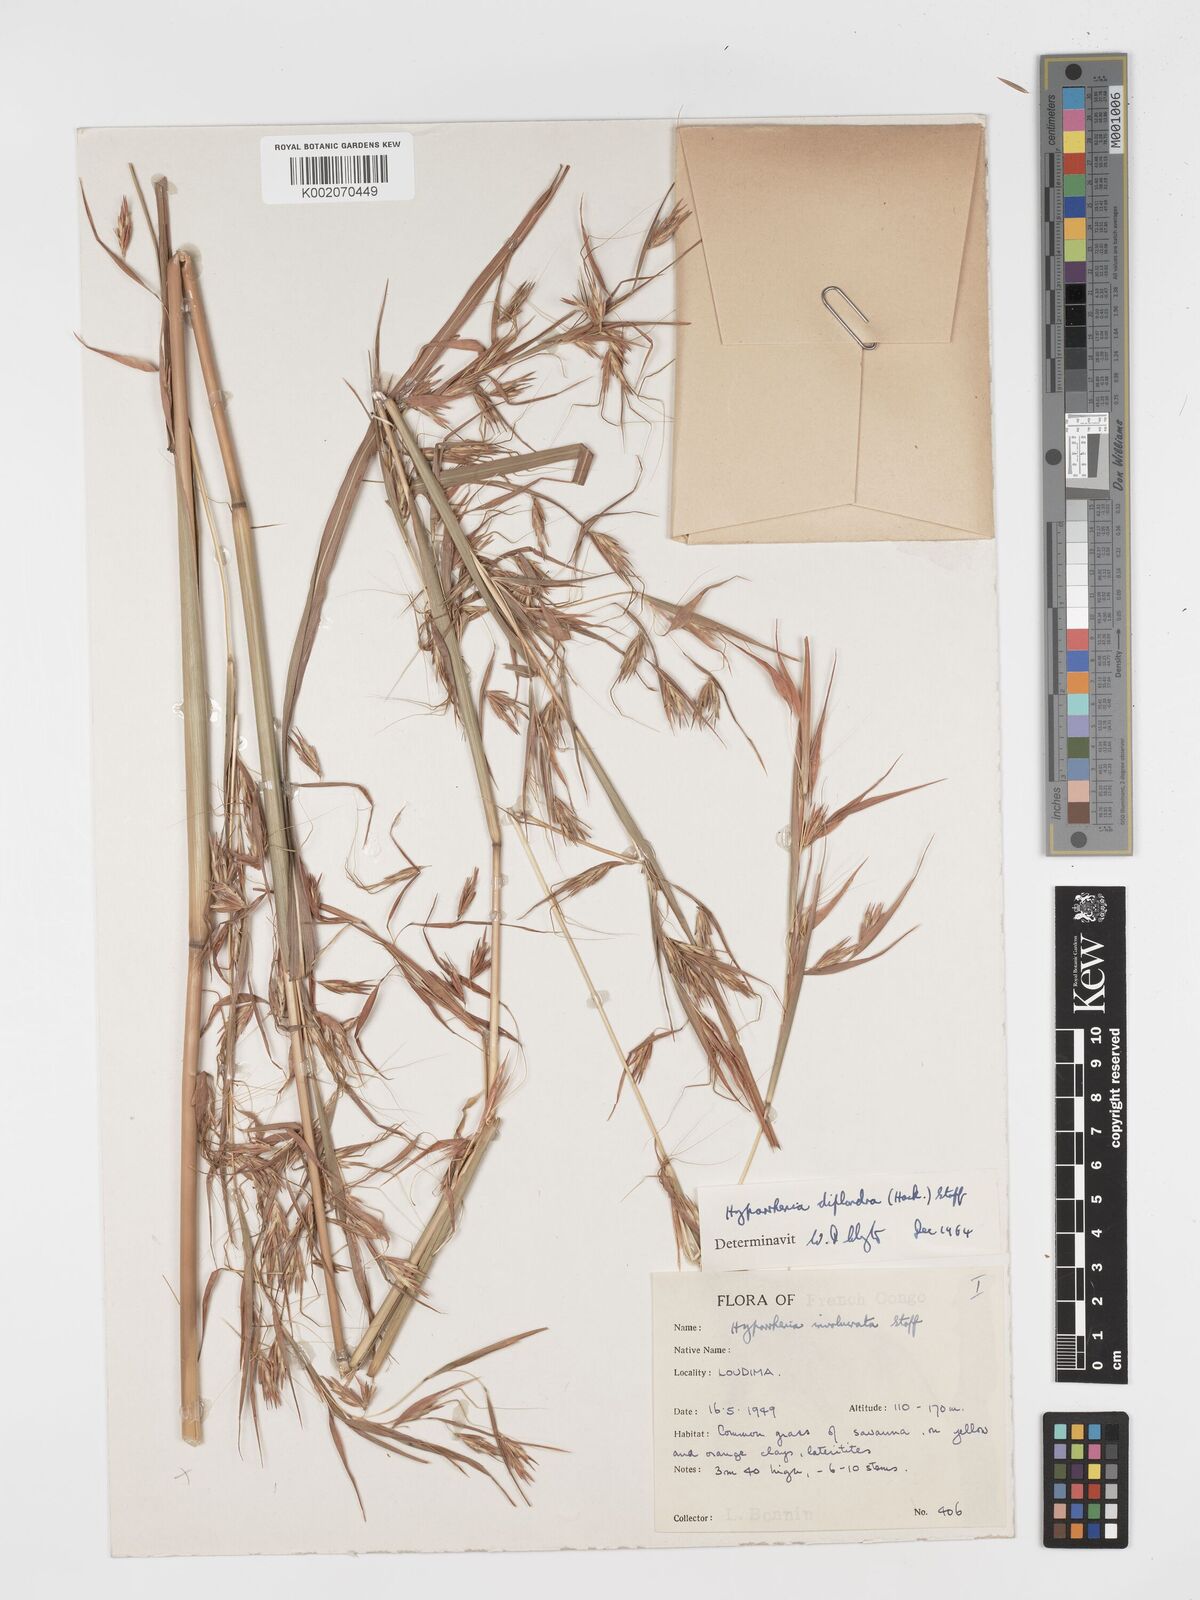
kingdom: Plantae
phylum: Tracheophyta
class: Liliopsida
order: Poales
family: Poaceae
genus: Hyparrhenia
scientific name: Hyparrhenia diplandra
